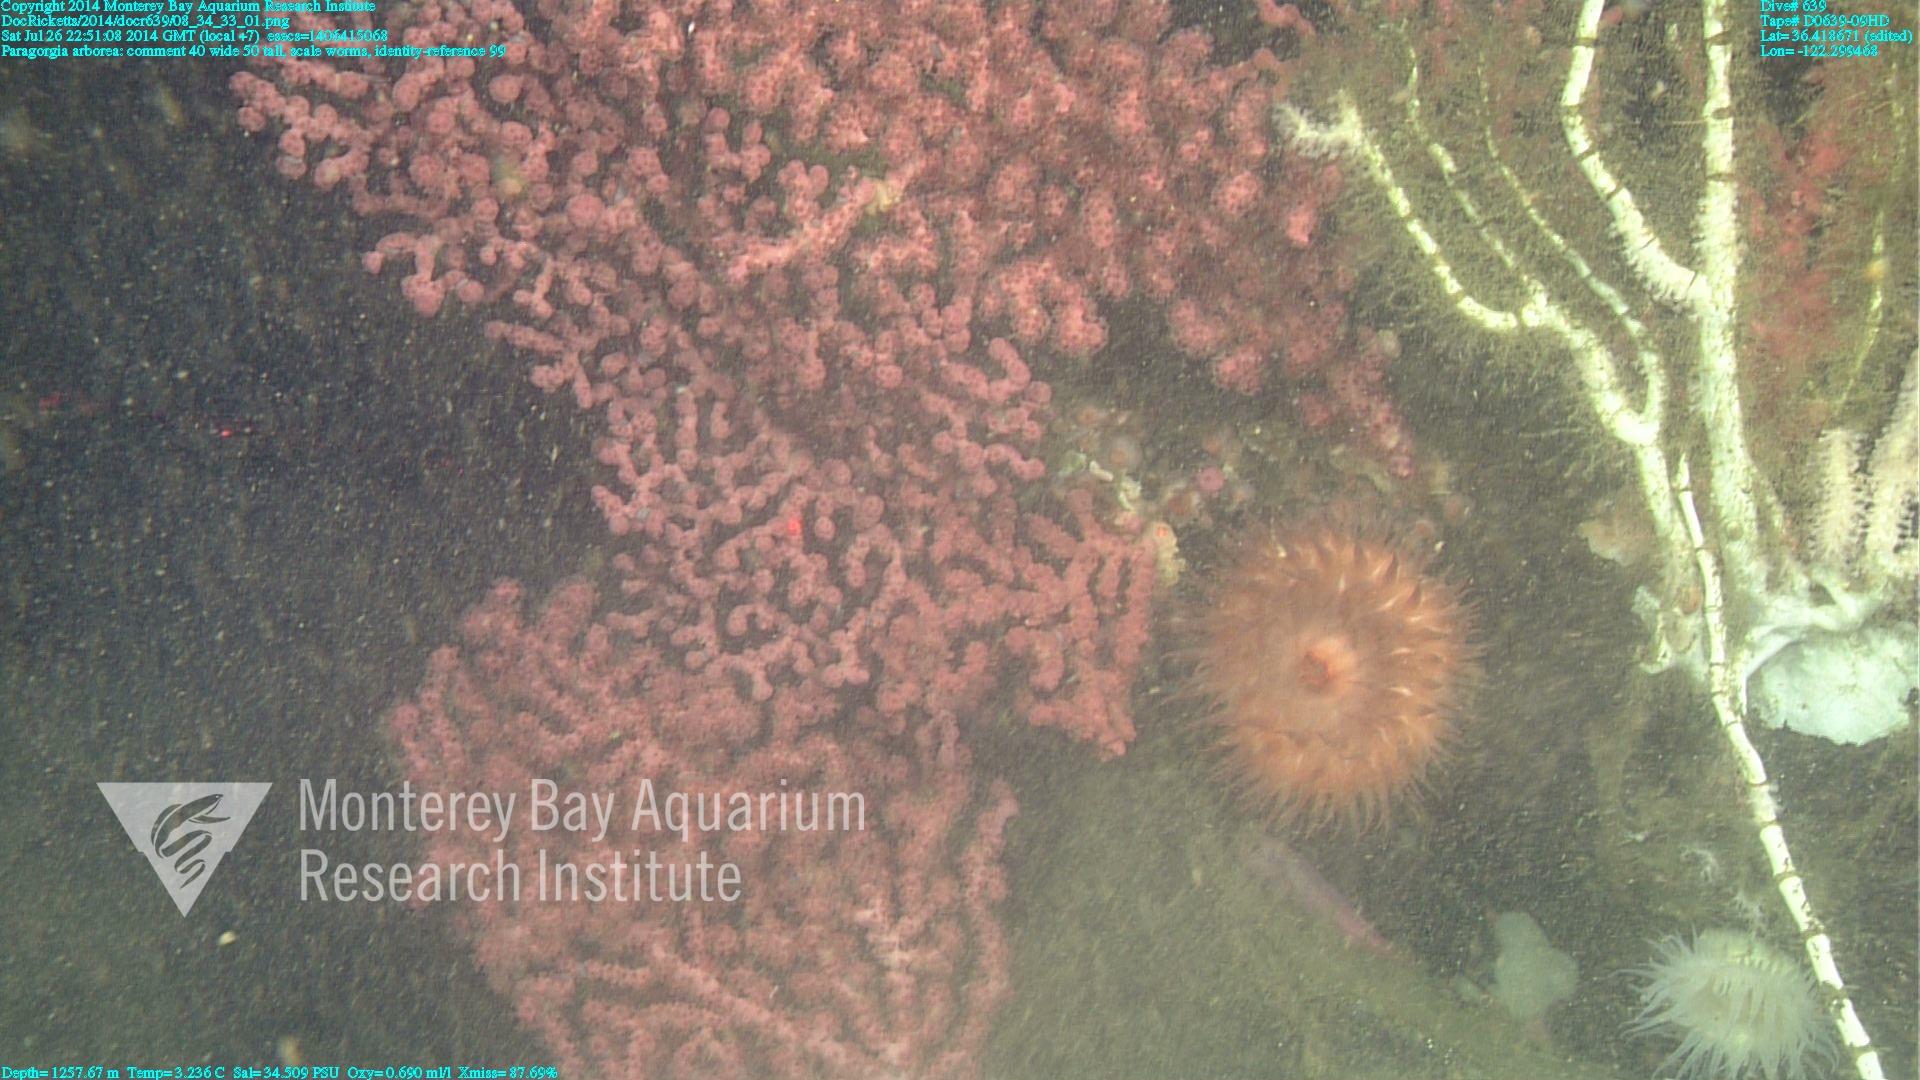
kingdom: Animalia
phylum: Cnidaria
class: Anthozoa
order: Scleralcyonacea
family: Coralliidae
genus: Paragorgia
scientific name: Paragorgia arborea
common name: Bubble gum coral
